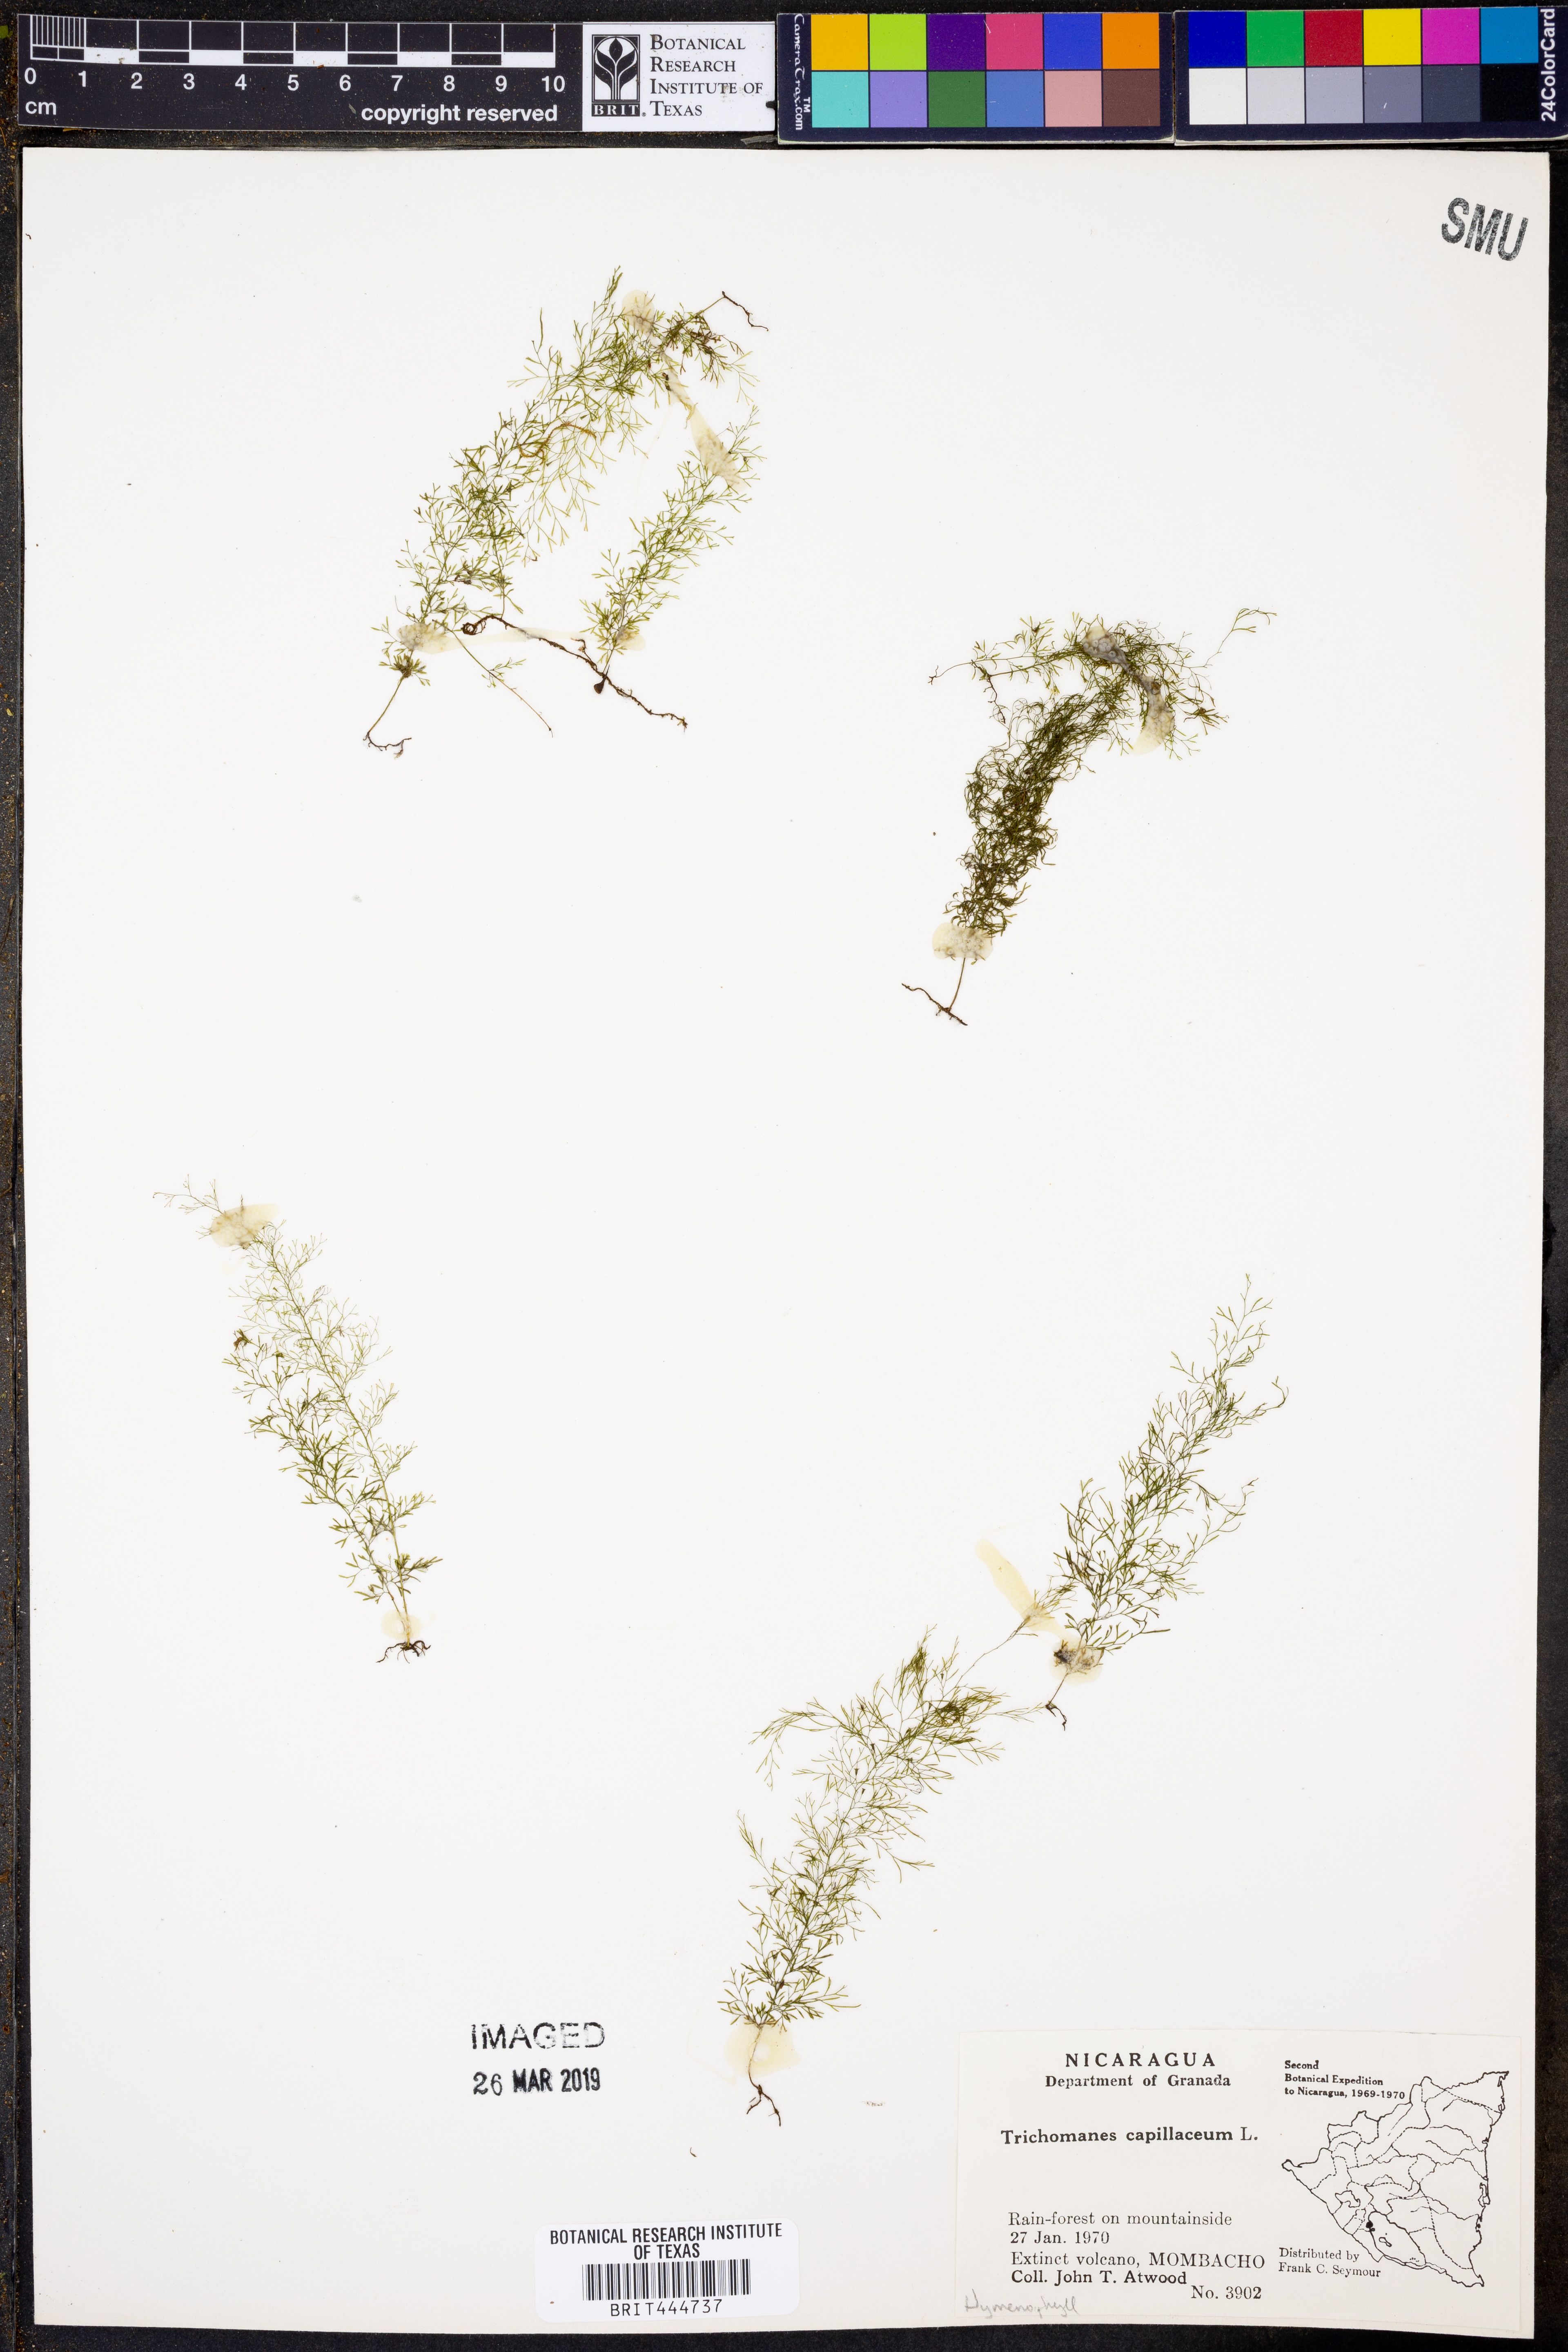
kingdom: Plantae
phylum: Tracheophyta
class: Polypodiopsida
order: Hymenophyllales
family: Hymenophyllaceae
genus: Polyphlebium
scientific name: Polyphlebium capillaceum
